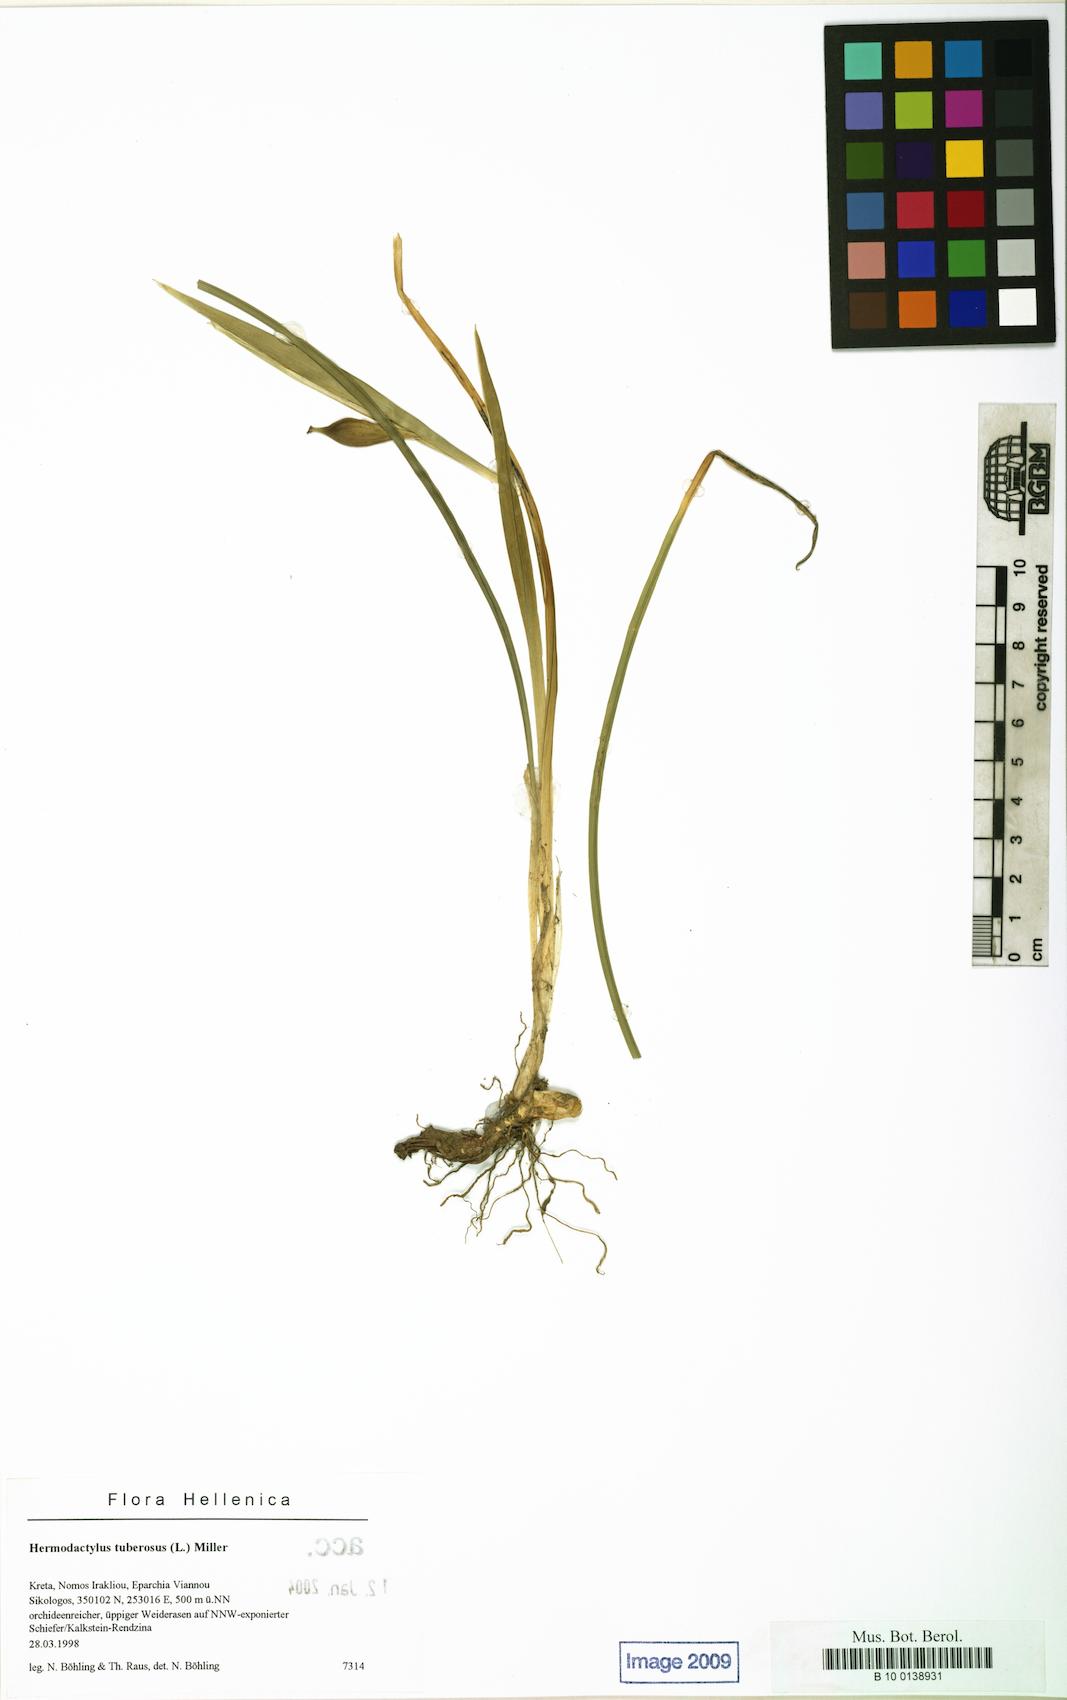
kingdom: Plantae
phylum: Tracheophyta
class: Liliopsida
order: Asparagales
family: Iridaceae
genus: Iris
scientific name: Iris tuberosa
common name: Snake's-head iris
